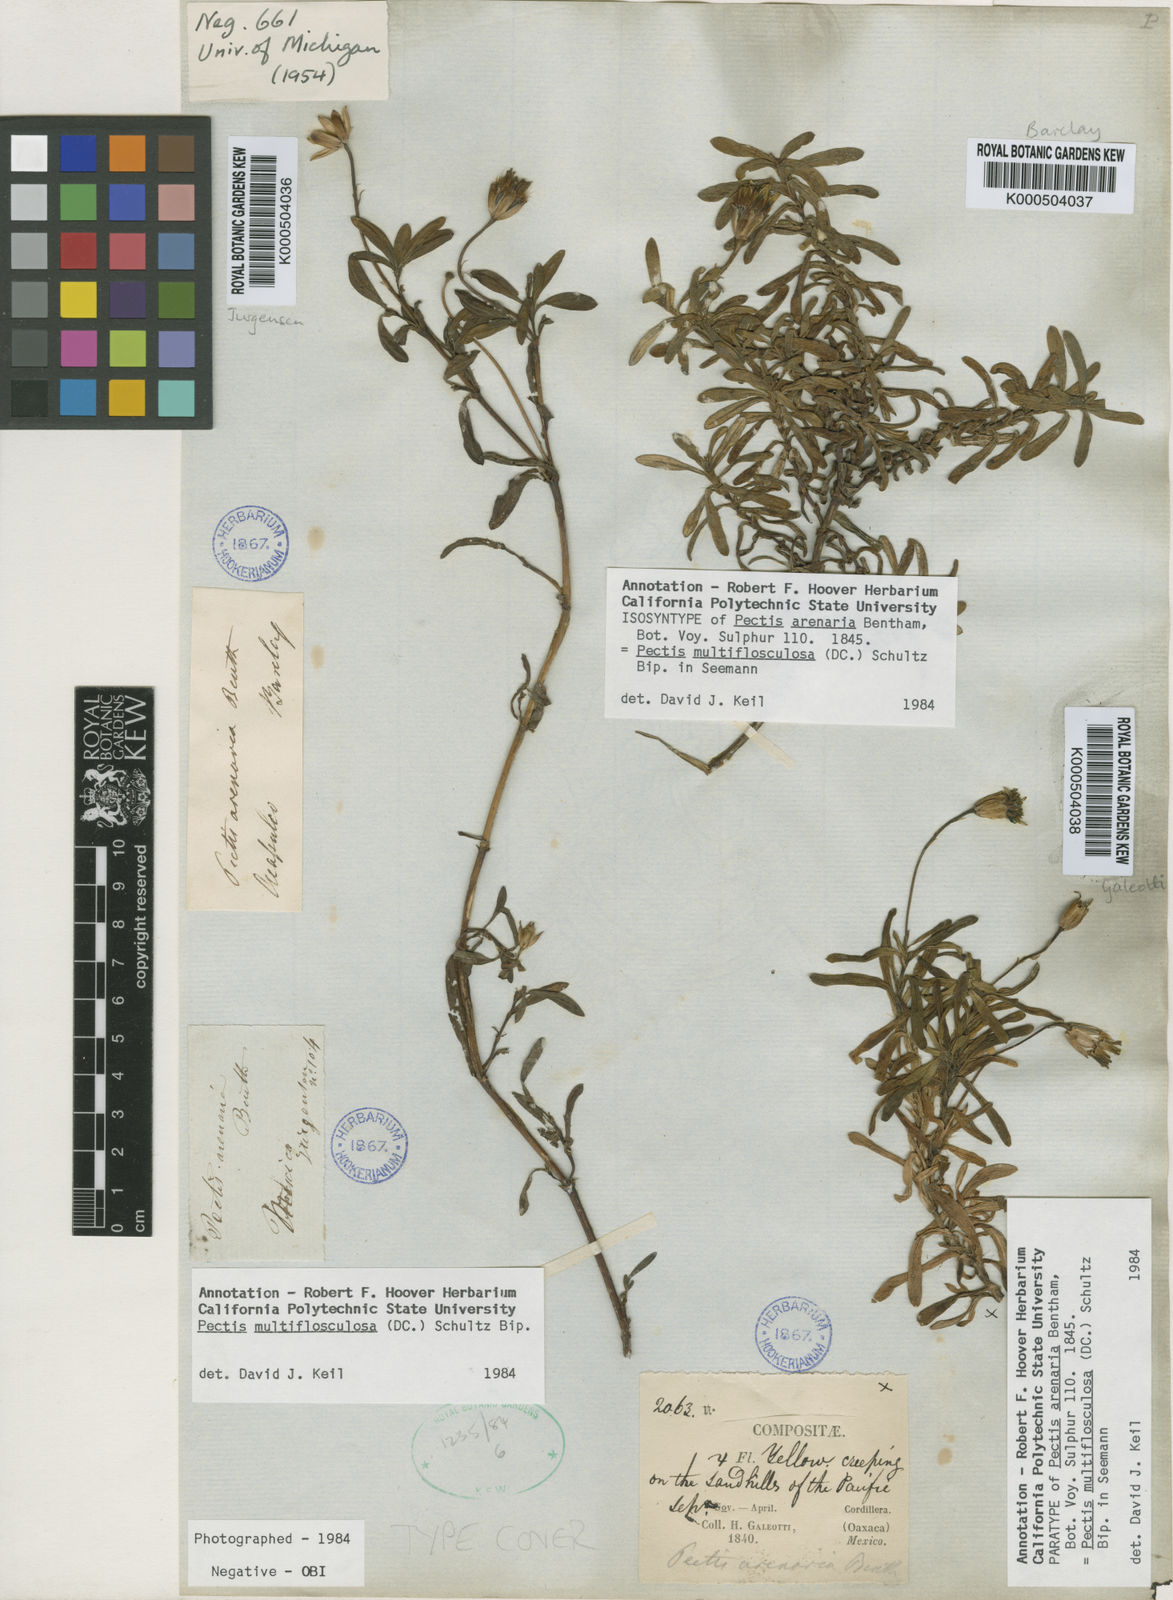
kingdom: Plantae
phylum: Tracheophyta
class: Magnoliopsida
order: Asterales
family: Asteraceae
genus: Pectis
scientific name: Pectis multiflosculosa
